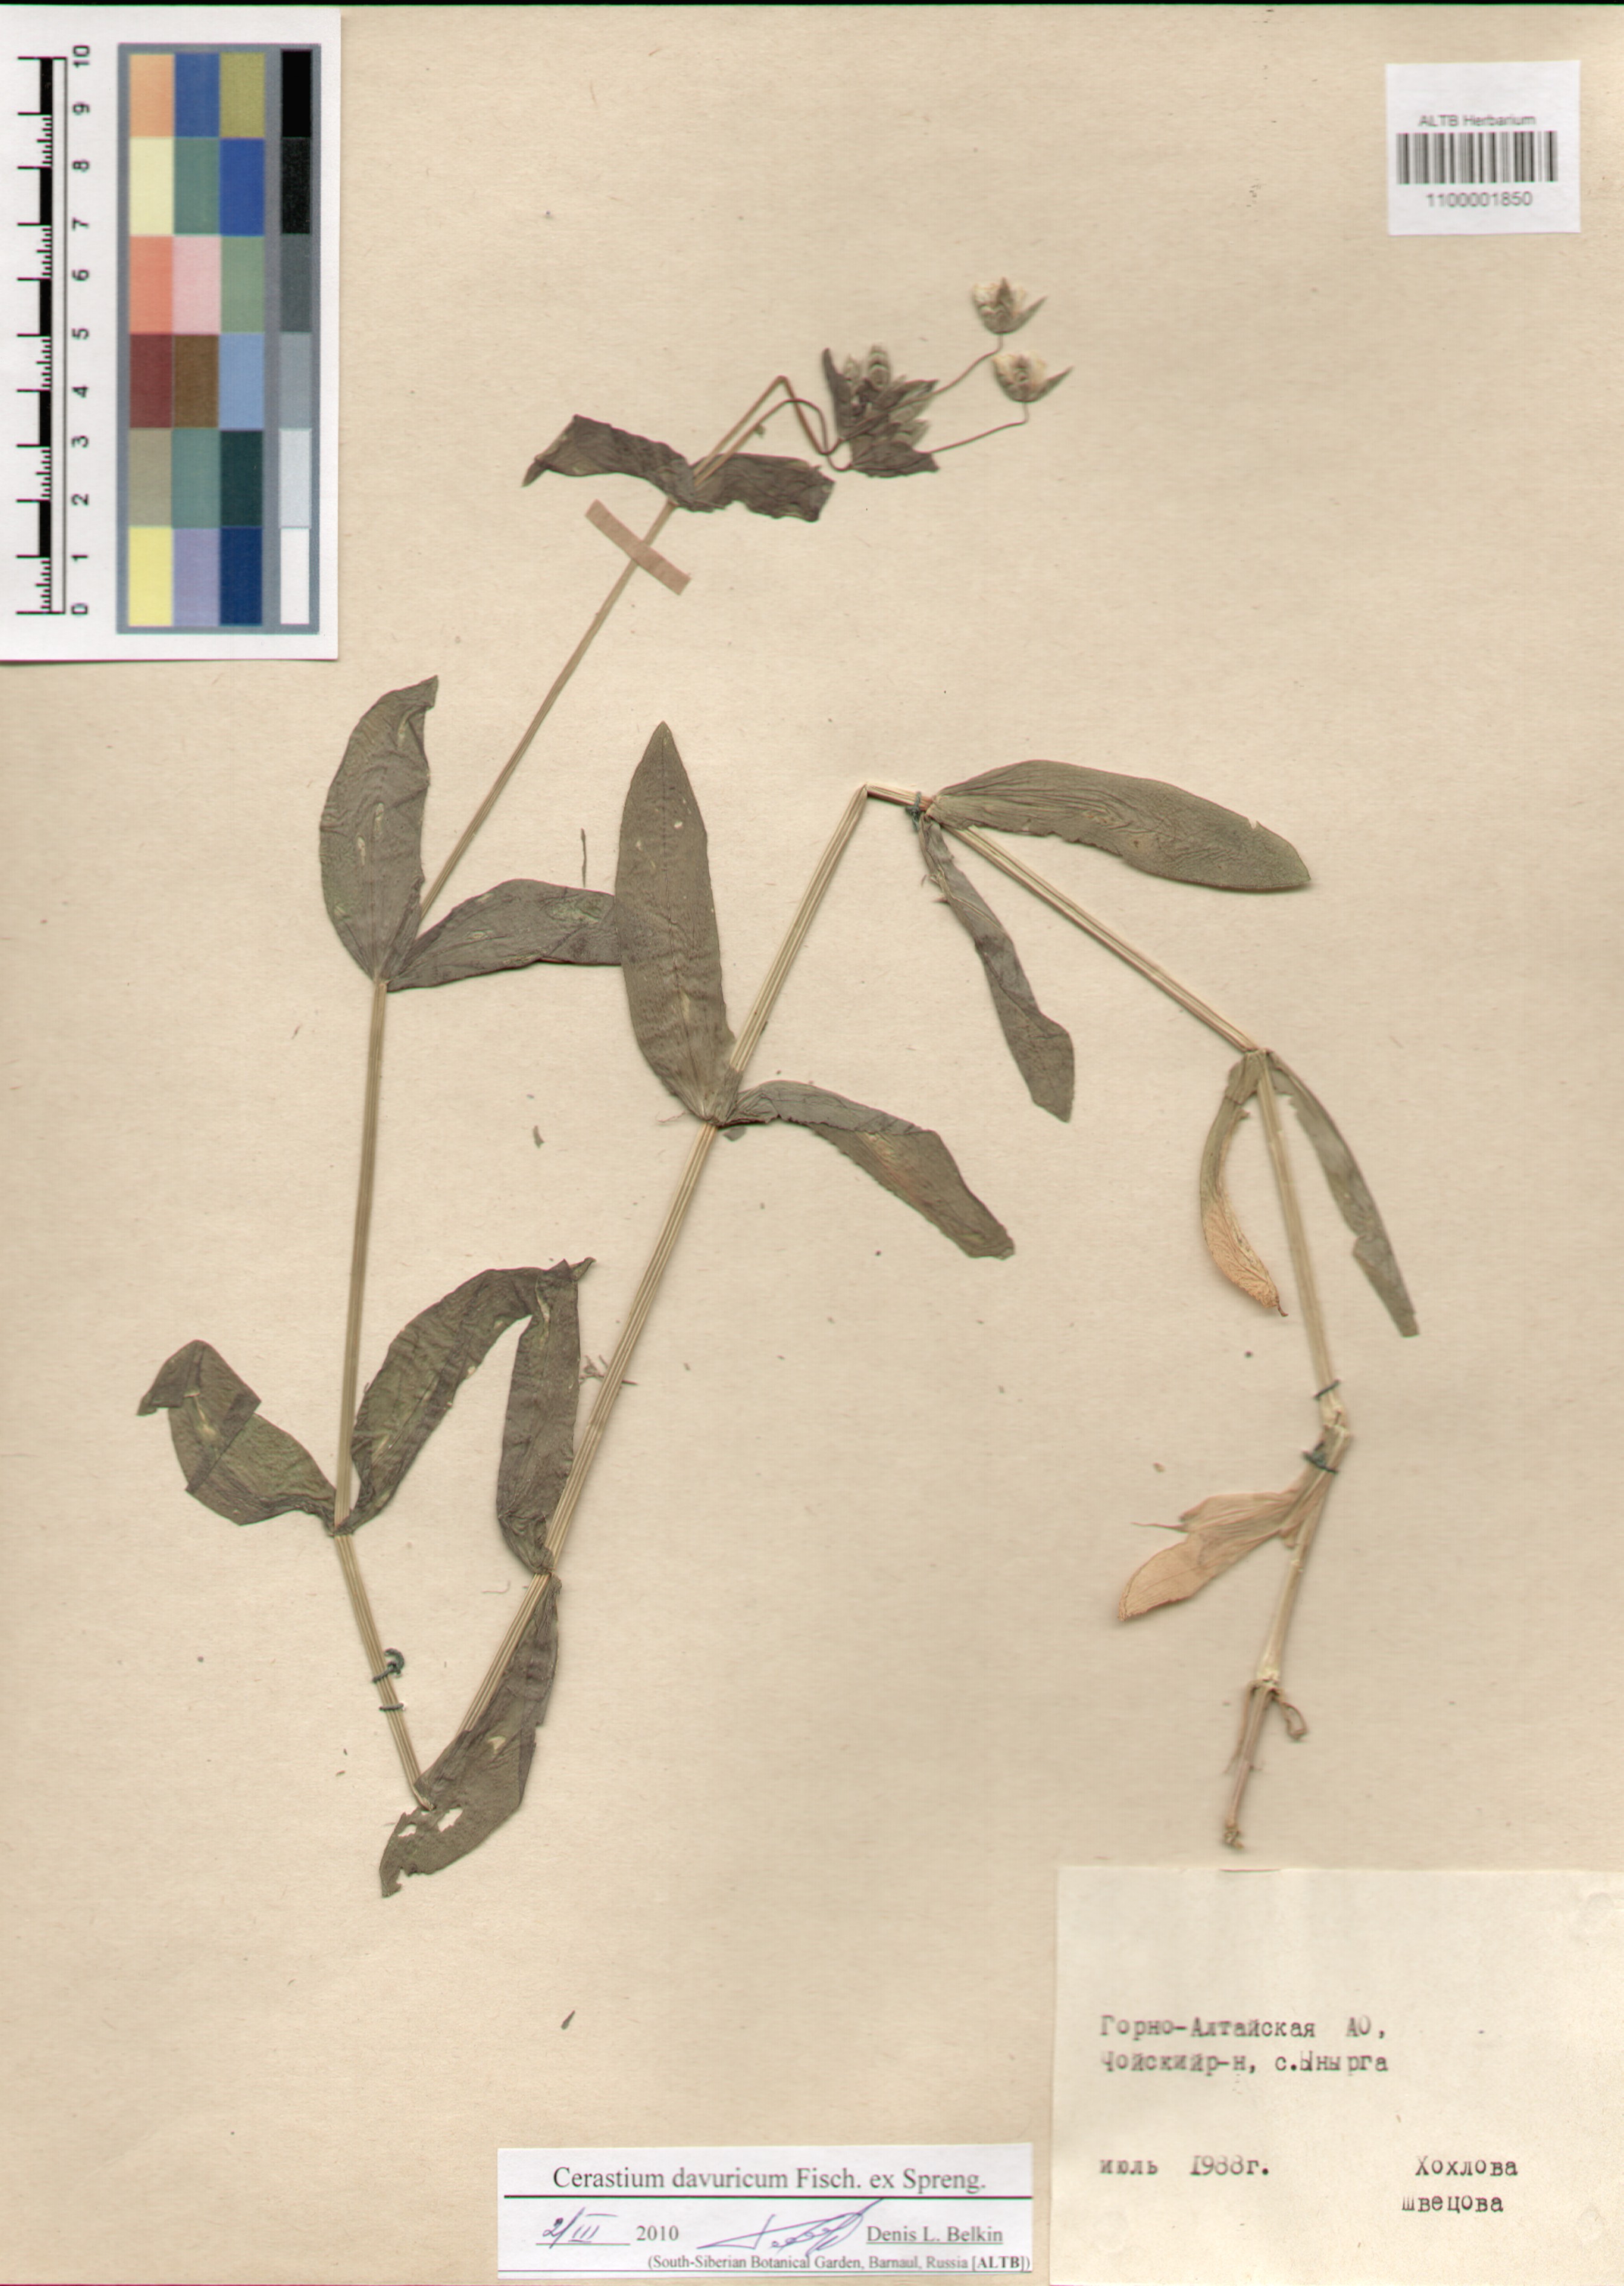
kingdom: Plantae
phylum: Tracheophyta
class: Magnoliopsida
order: Caryophyllales
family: Caryophyllaceae
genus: Dichodon
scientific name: Dichodon davuricum
